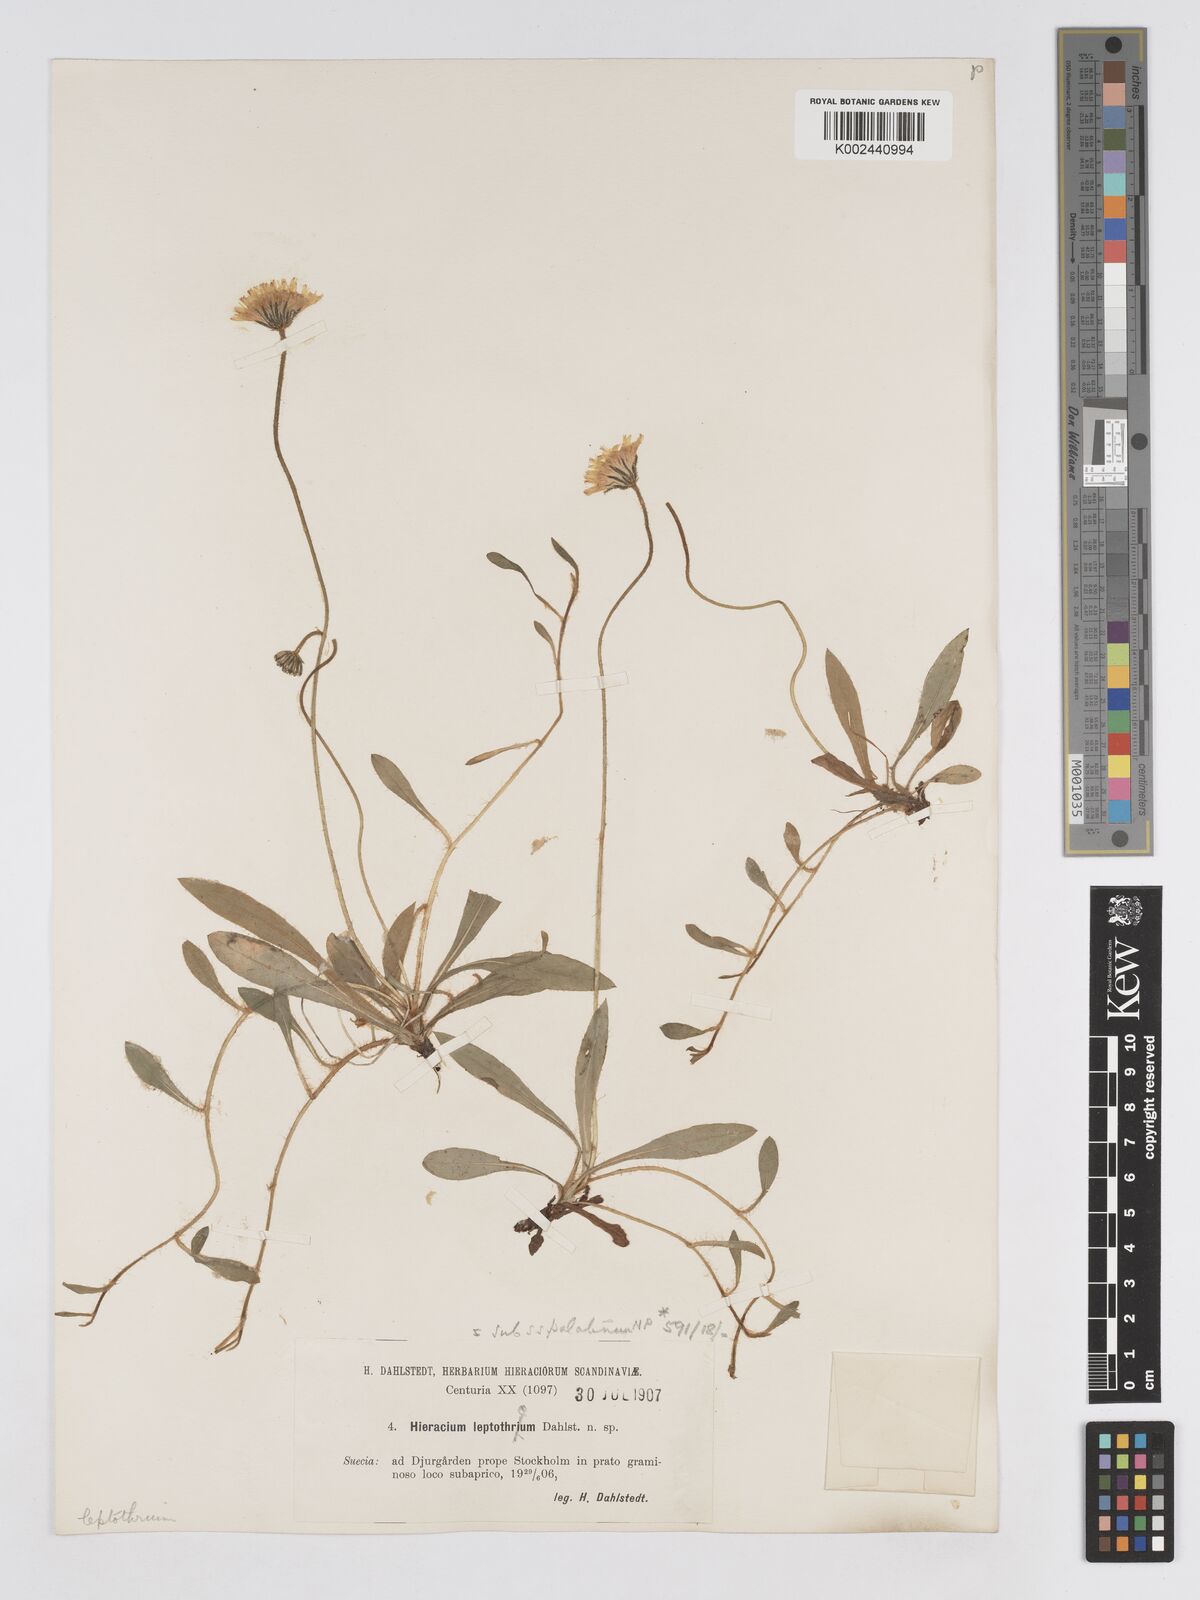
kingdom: Plantae
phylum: Tracheophyta
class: Magnoliopsida
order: Asterales
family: Asteraceae
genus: Pilosella
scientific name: Pilosella schultesii
